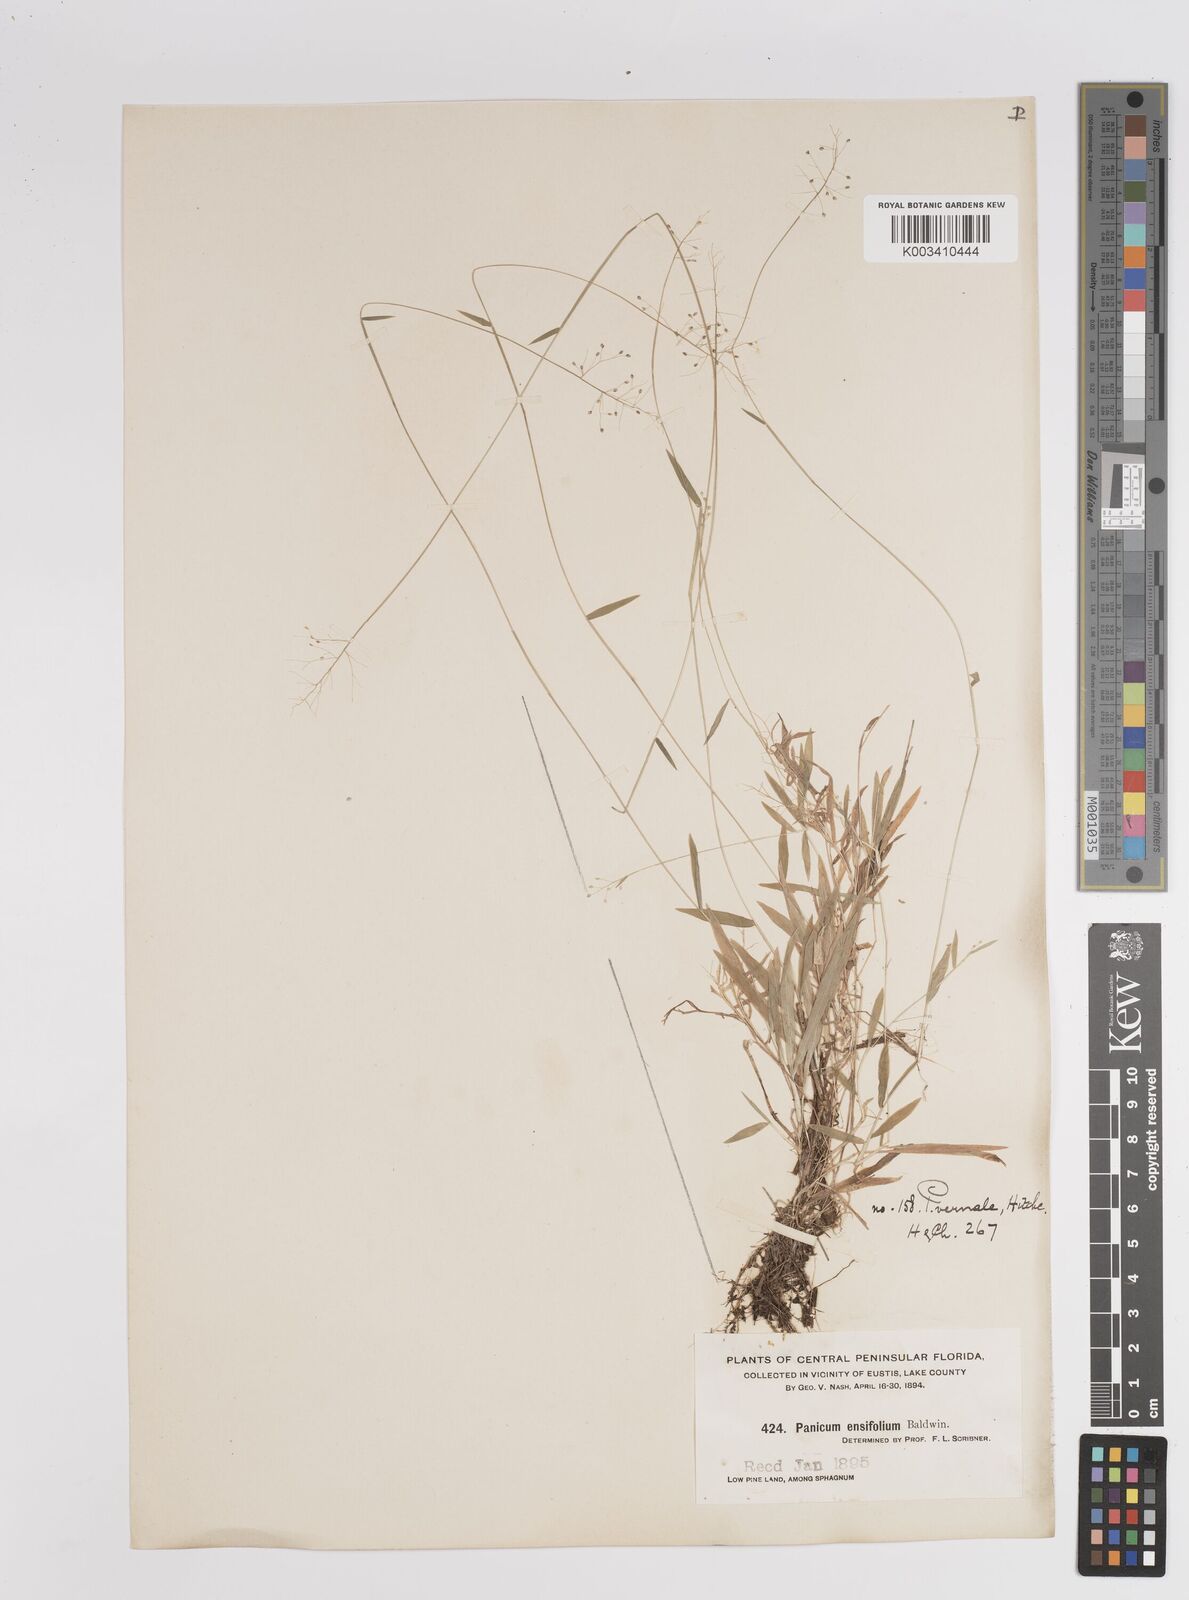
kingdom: Plantae
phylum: Tracheophyta
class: Liliopsida
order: Poales
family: Poaceae
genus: Dichanthelium
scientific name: Dichanthelium ensifolium
